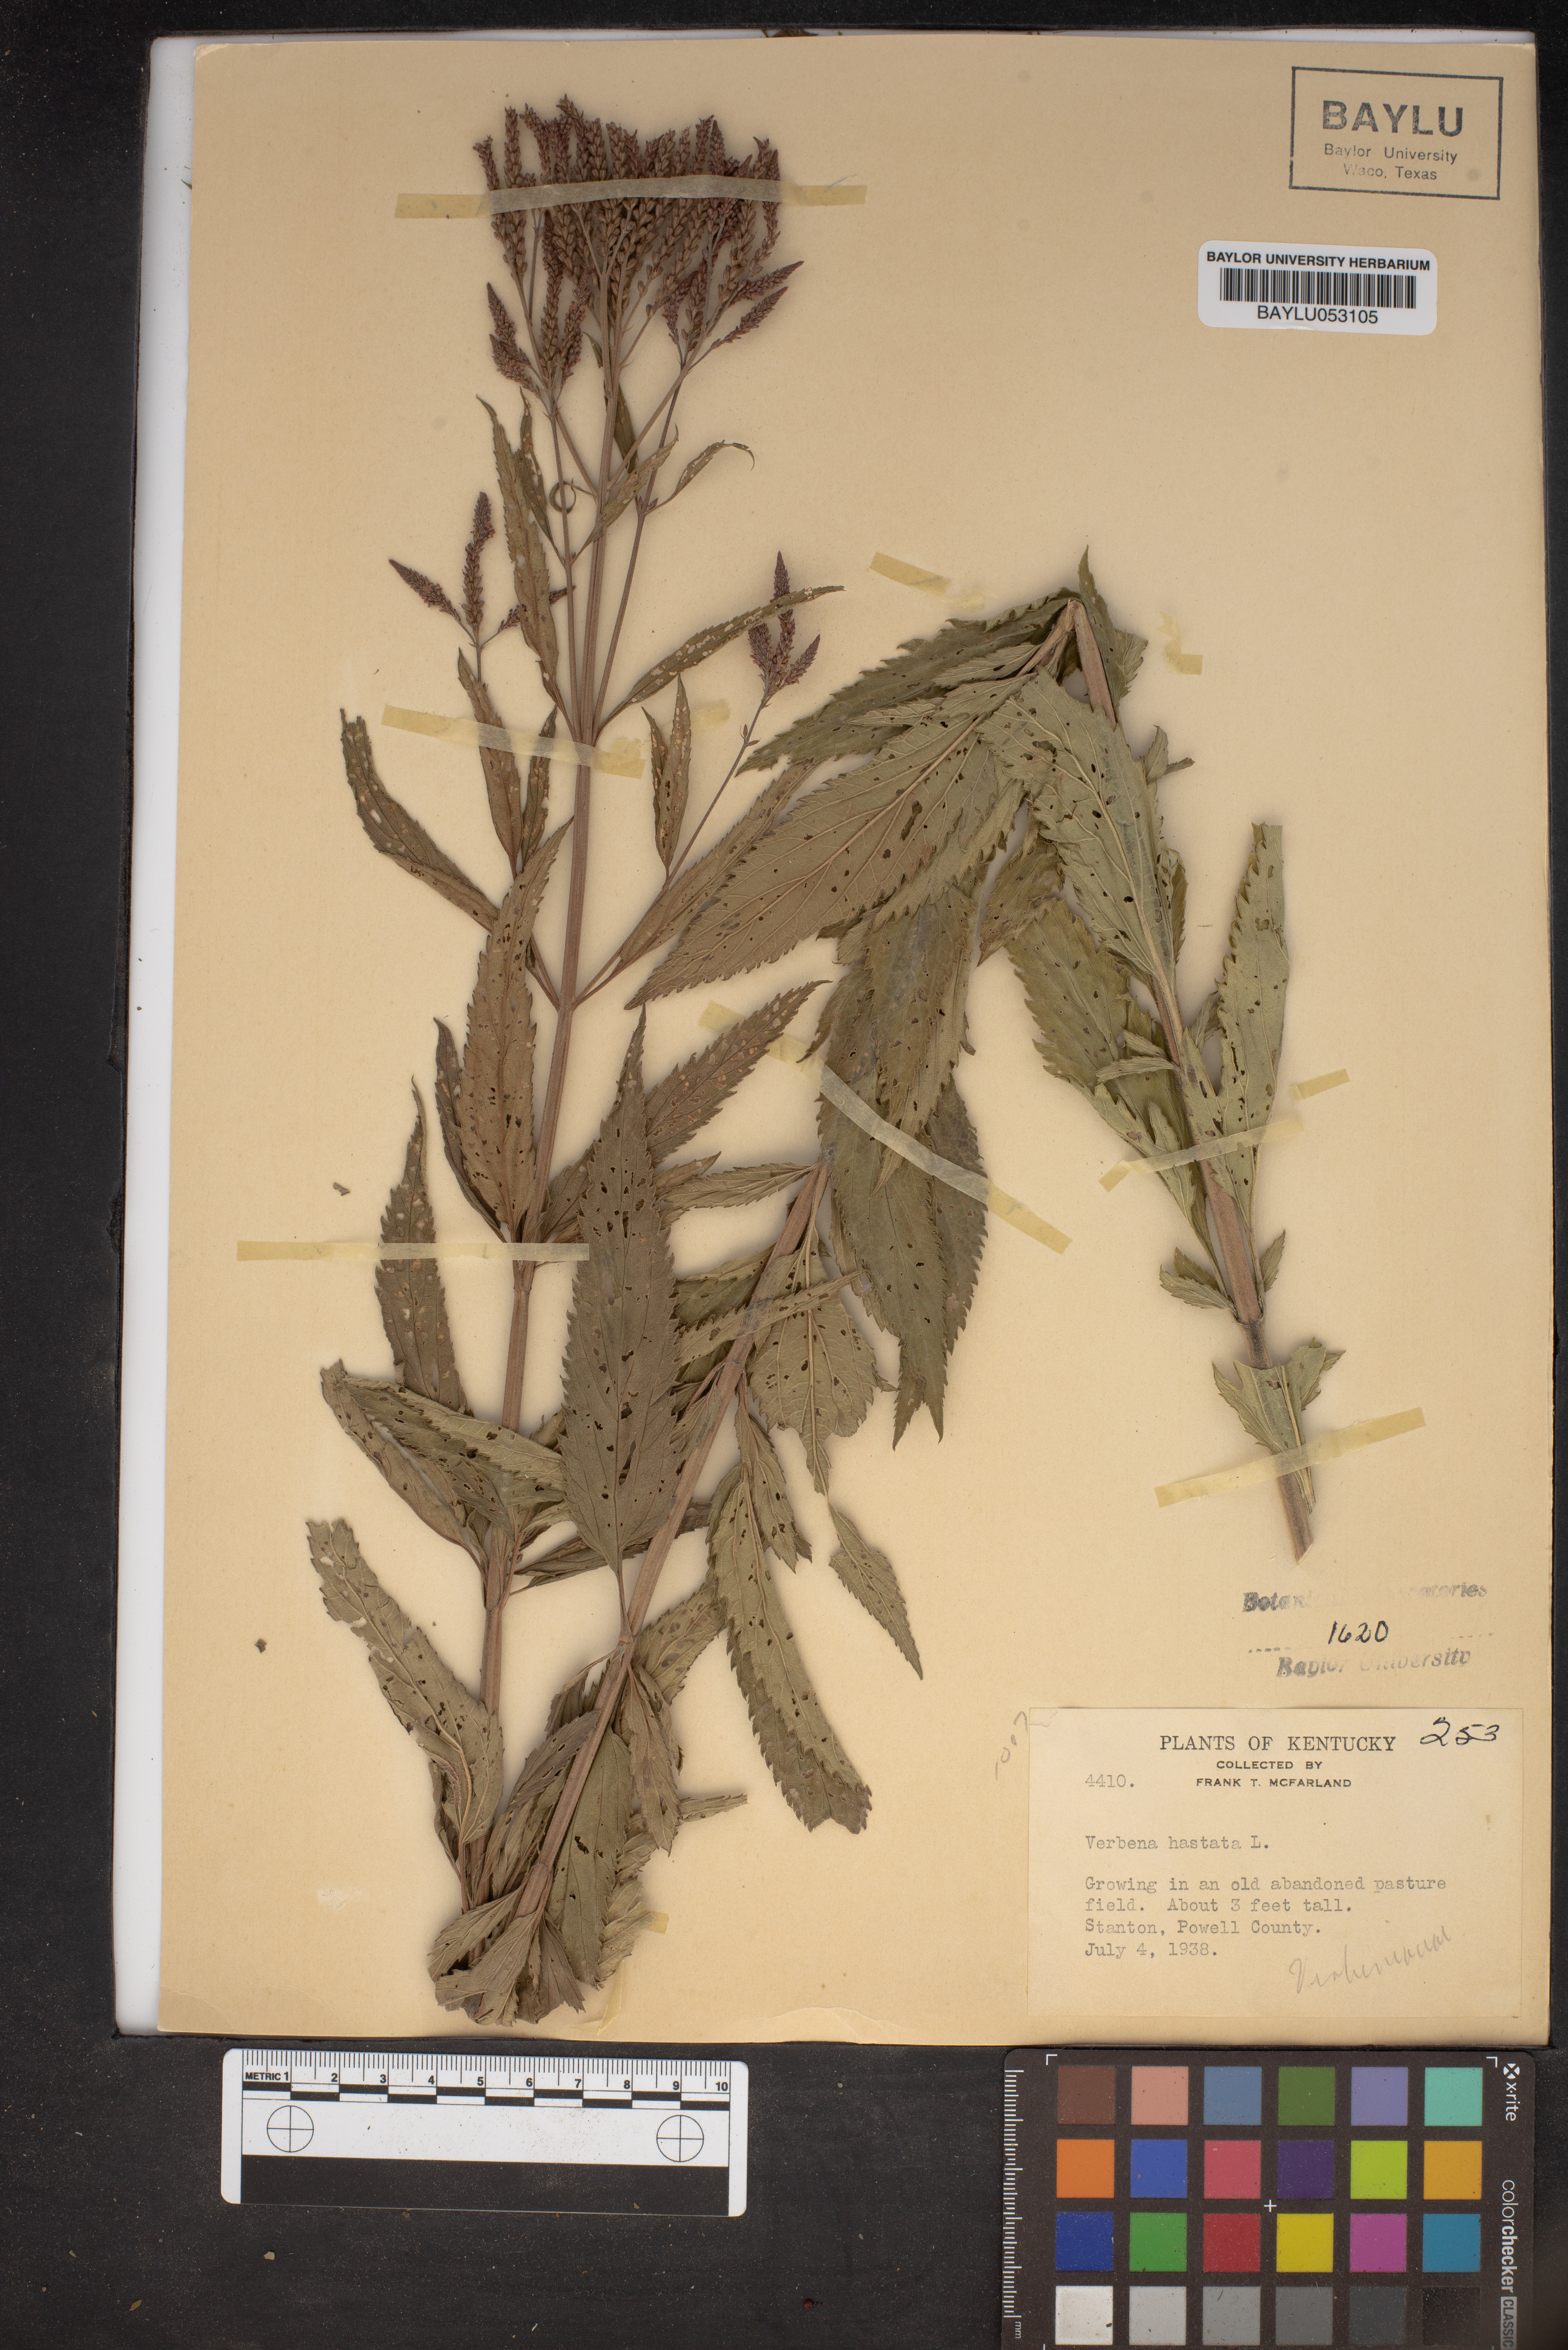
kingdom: Plantae
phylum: Tracheophyta
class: Magnoliopsida
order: Lamiales
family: Verbenaceae
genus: Verbena
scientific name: Verbena hastata
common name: American blue vervain
